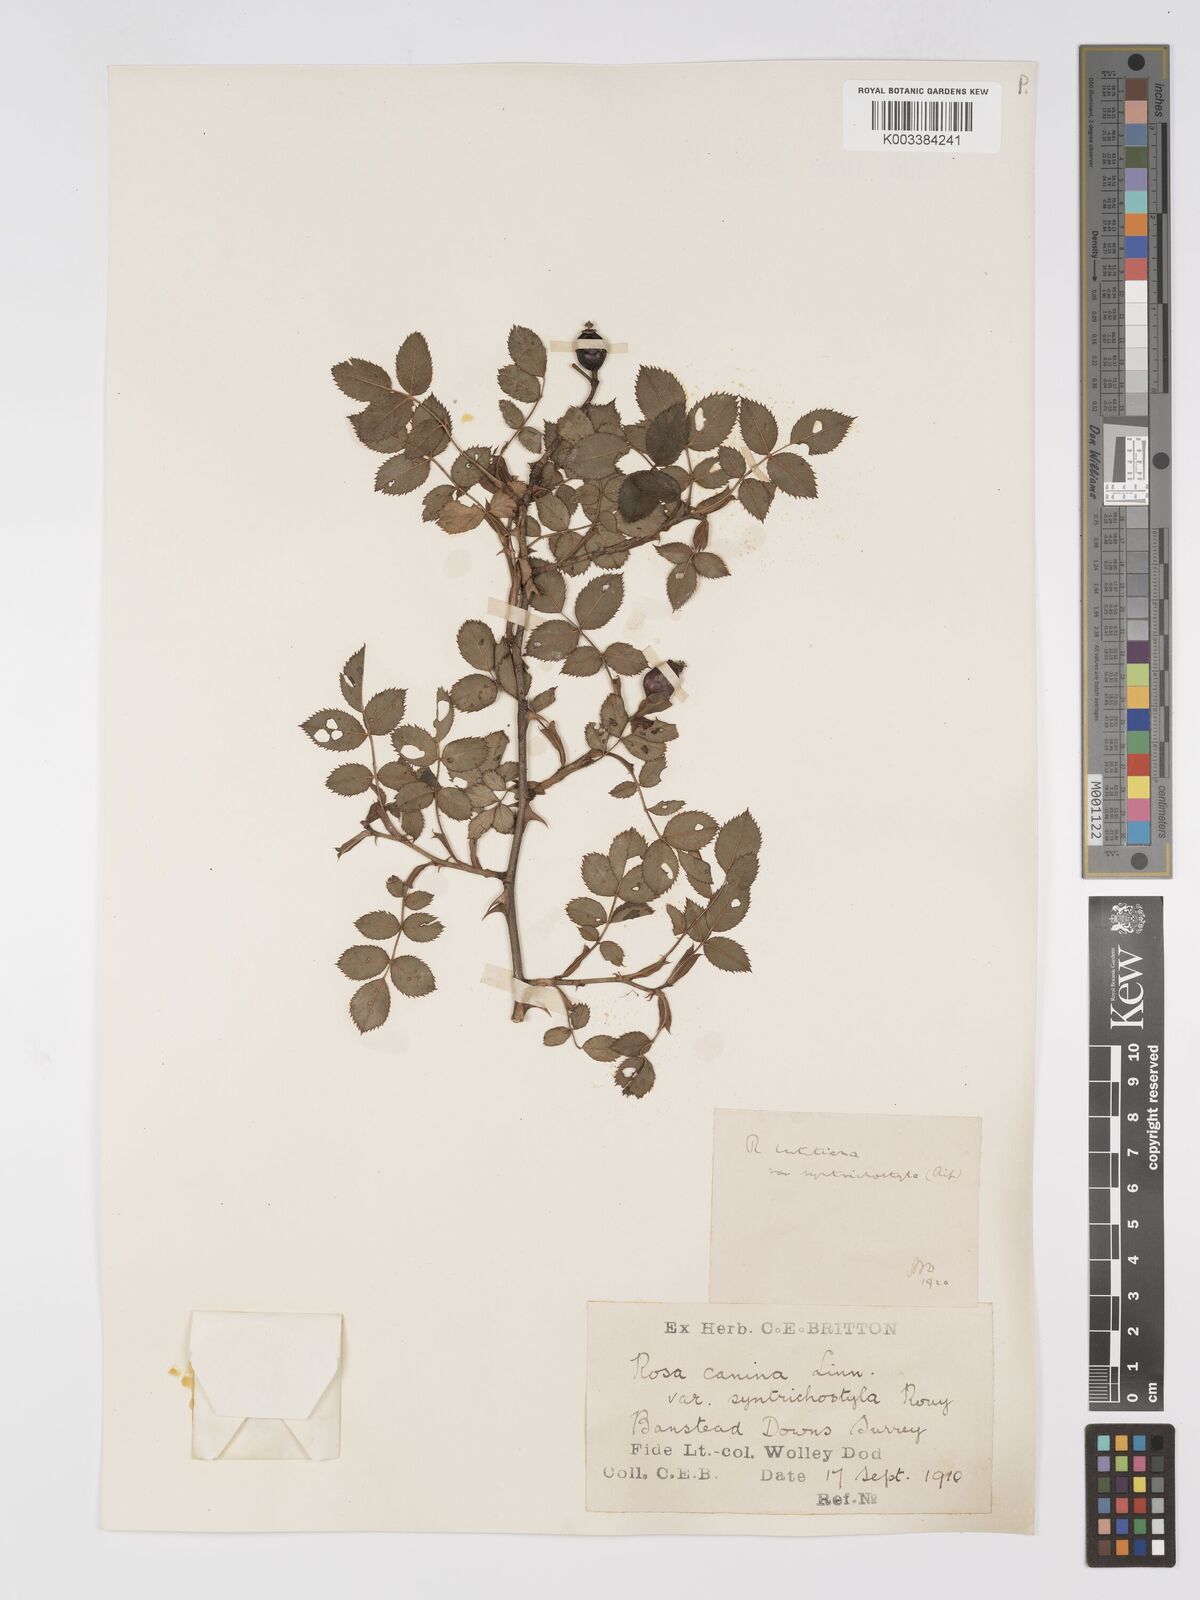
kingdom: Plantae
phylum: Tracheophyta
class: Magnoliopsida
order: Rosales
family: Rosaceae
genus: Rosa
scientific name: Rosa canina
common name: Dog rose
